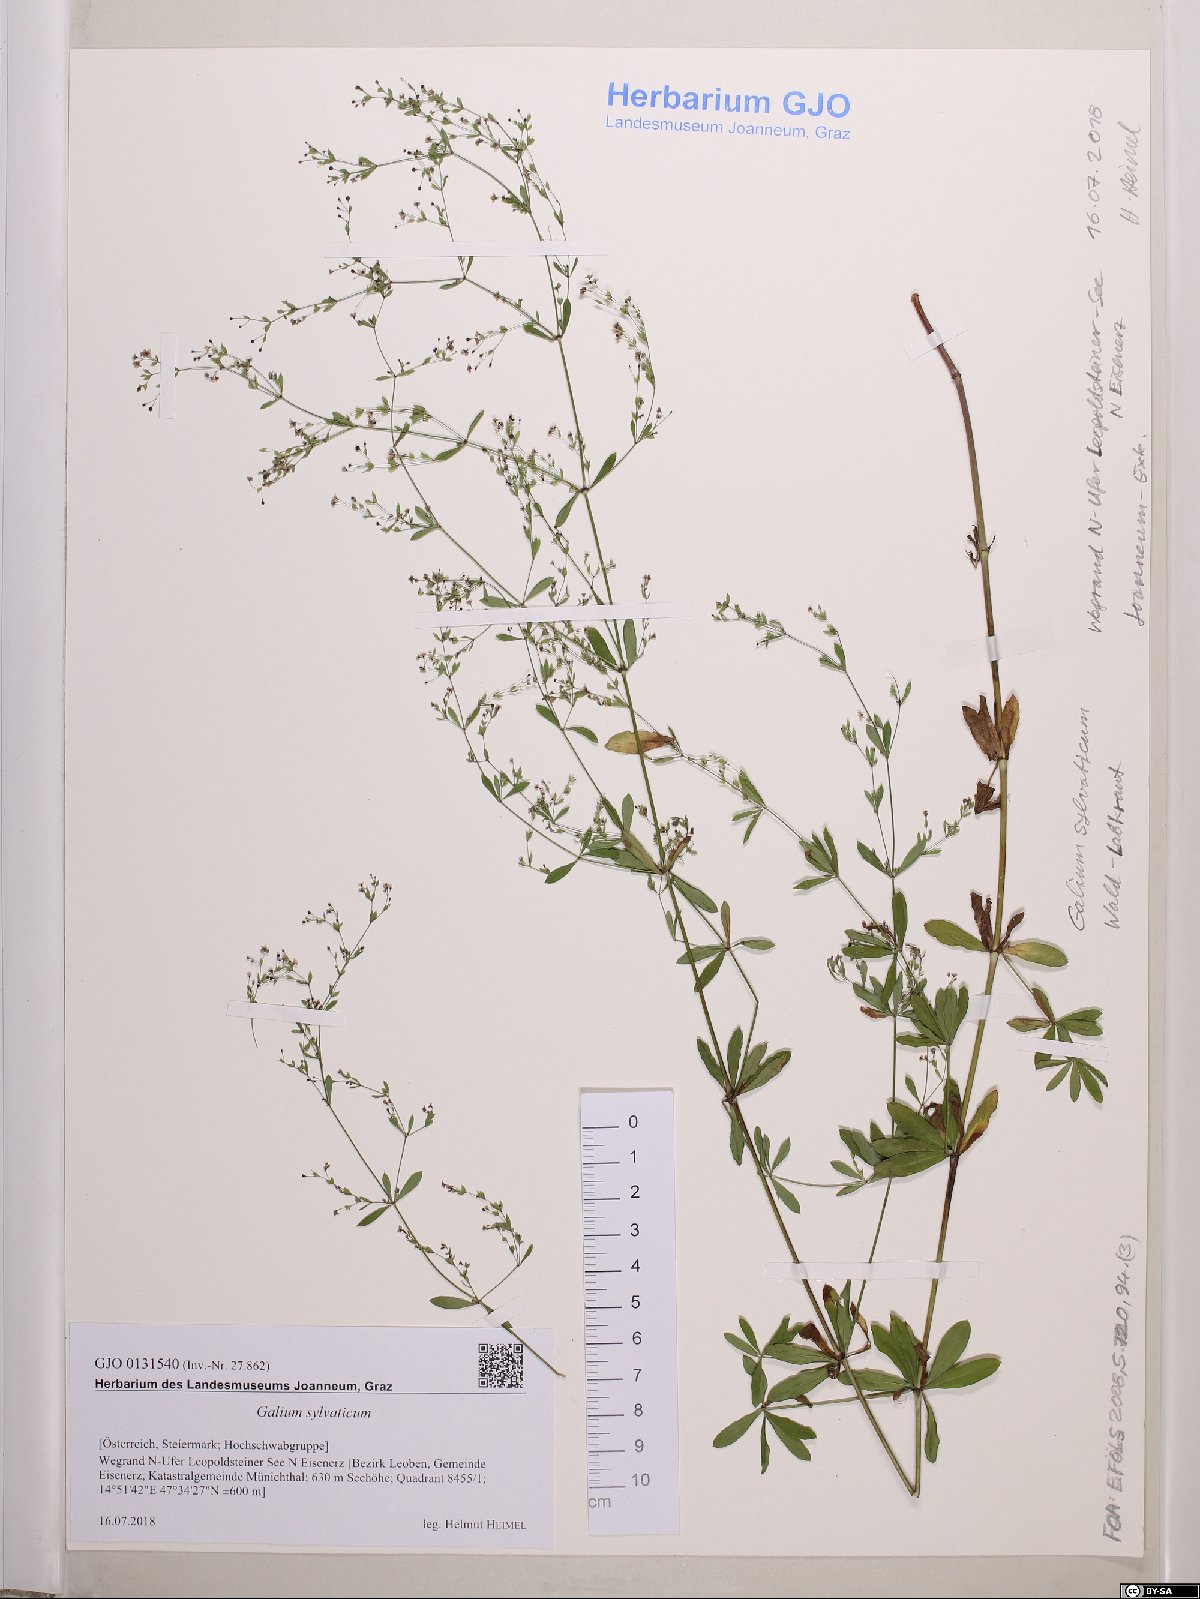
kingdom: Plantae
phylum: Tracheophyta
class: Magnoliopsida
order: Gentianales
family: Rubiaceae
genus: Galium
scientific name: Galium sylvaticum
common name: Wood bedstraw
